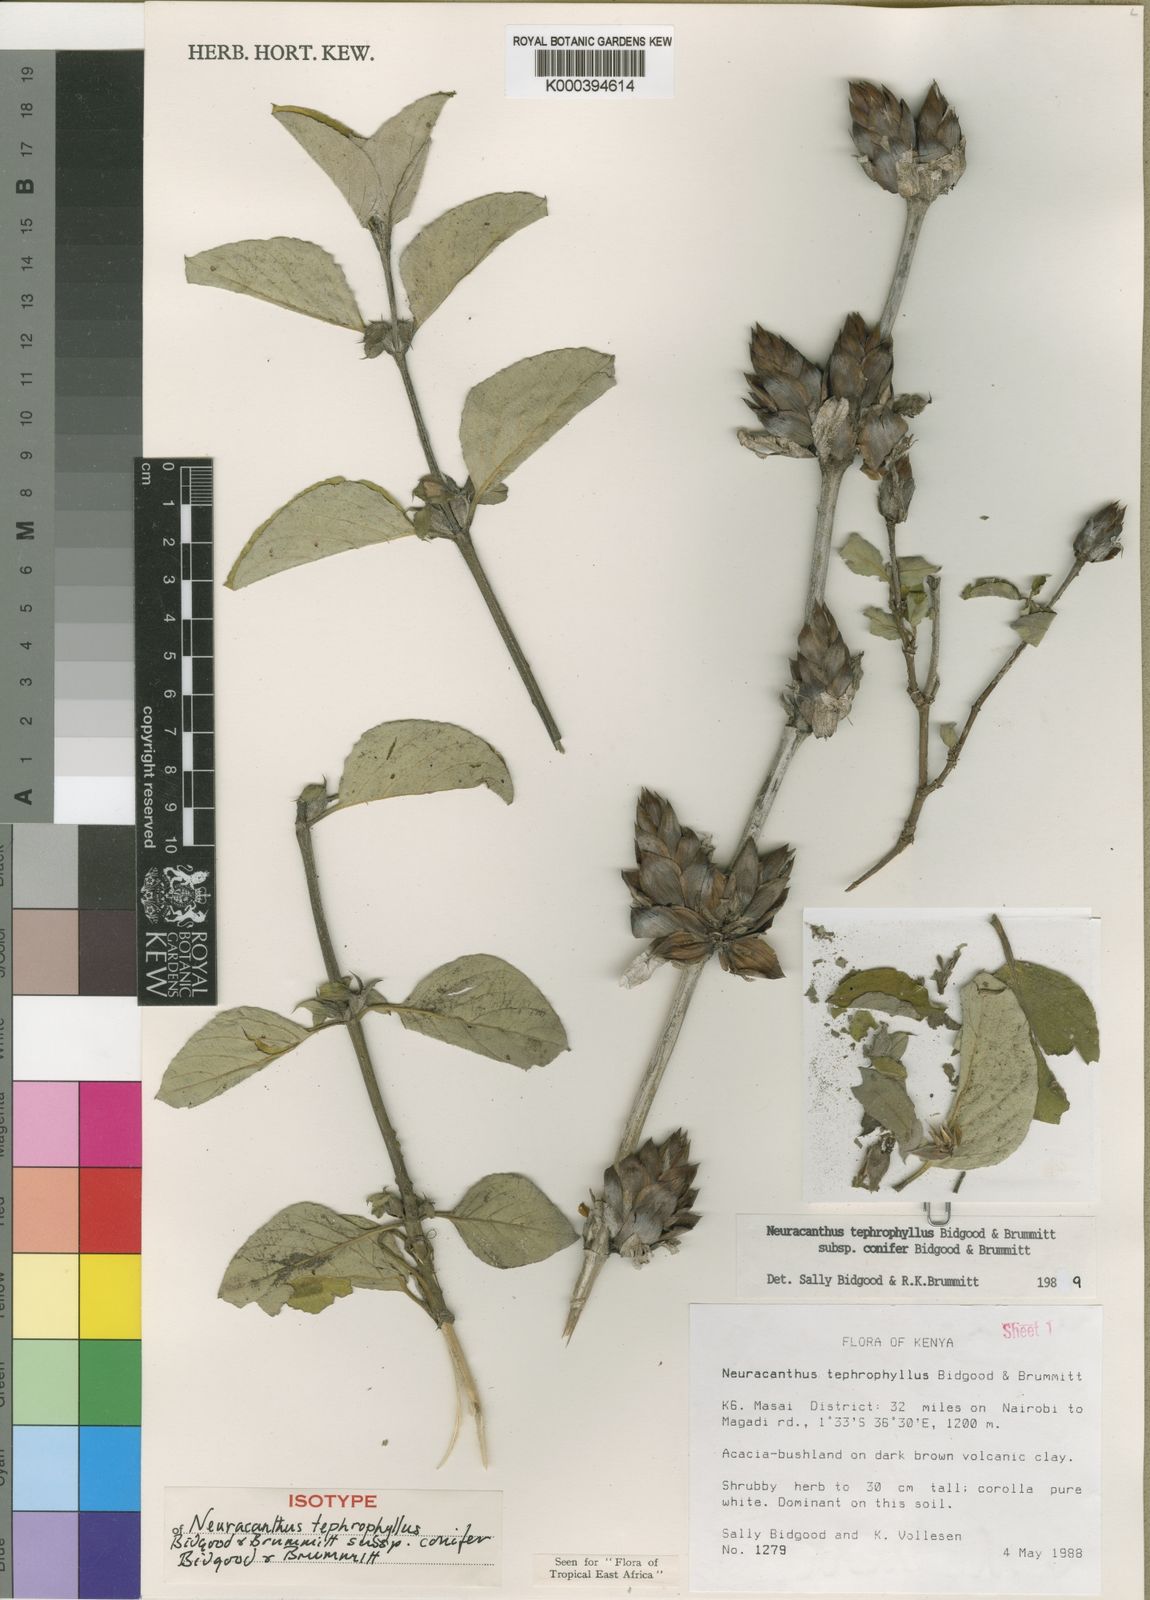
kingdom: Plantae
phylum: Tracheophyta
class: Magnoliopsida
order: Lamiales
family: Acanthaceae
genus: Neuracanthus
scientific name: Neuracanthus tephrophyllus
